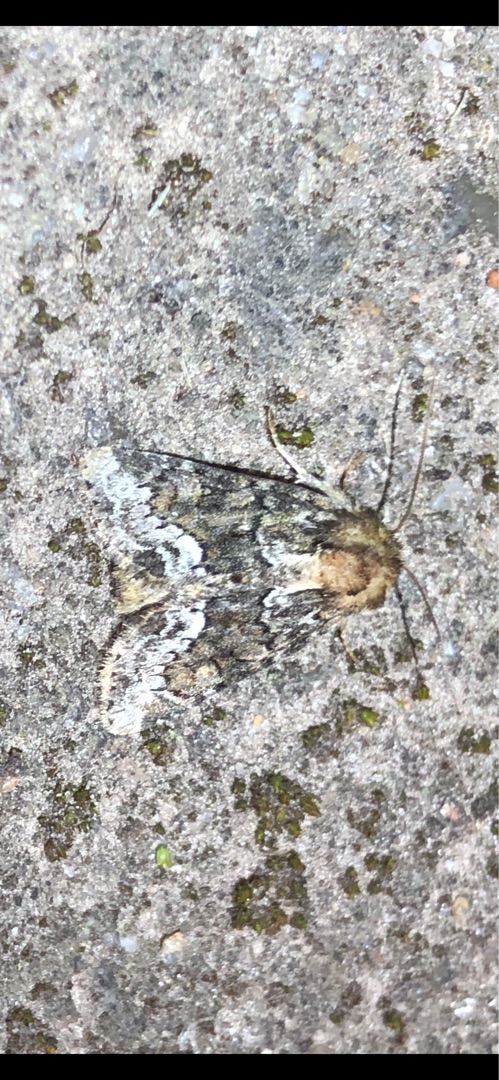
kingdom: Animalia
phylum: Arthropoda
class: Insecta
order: Lepidoptera
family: Noctuidae
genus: Oligia
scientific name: Oligia strigilis
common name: Hundegræsugle
